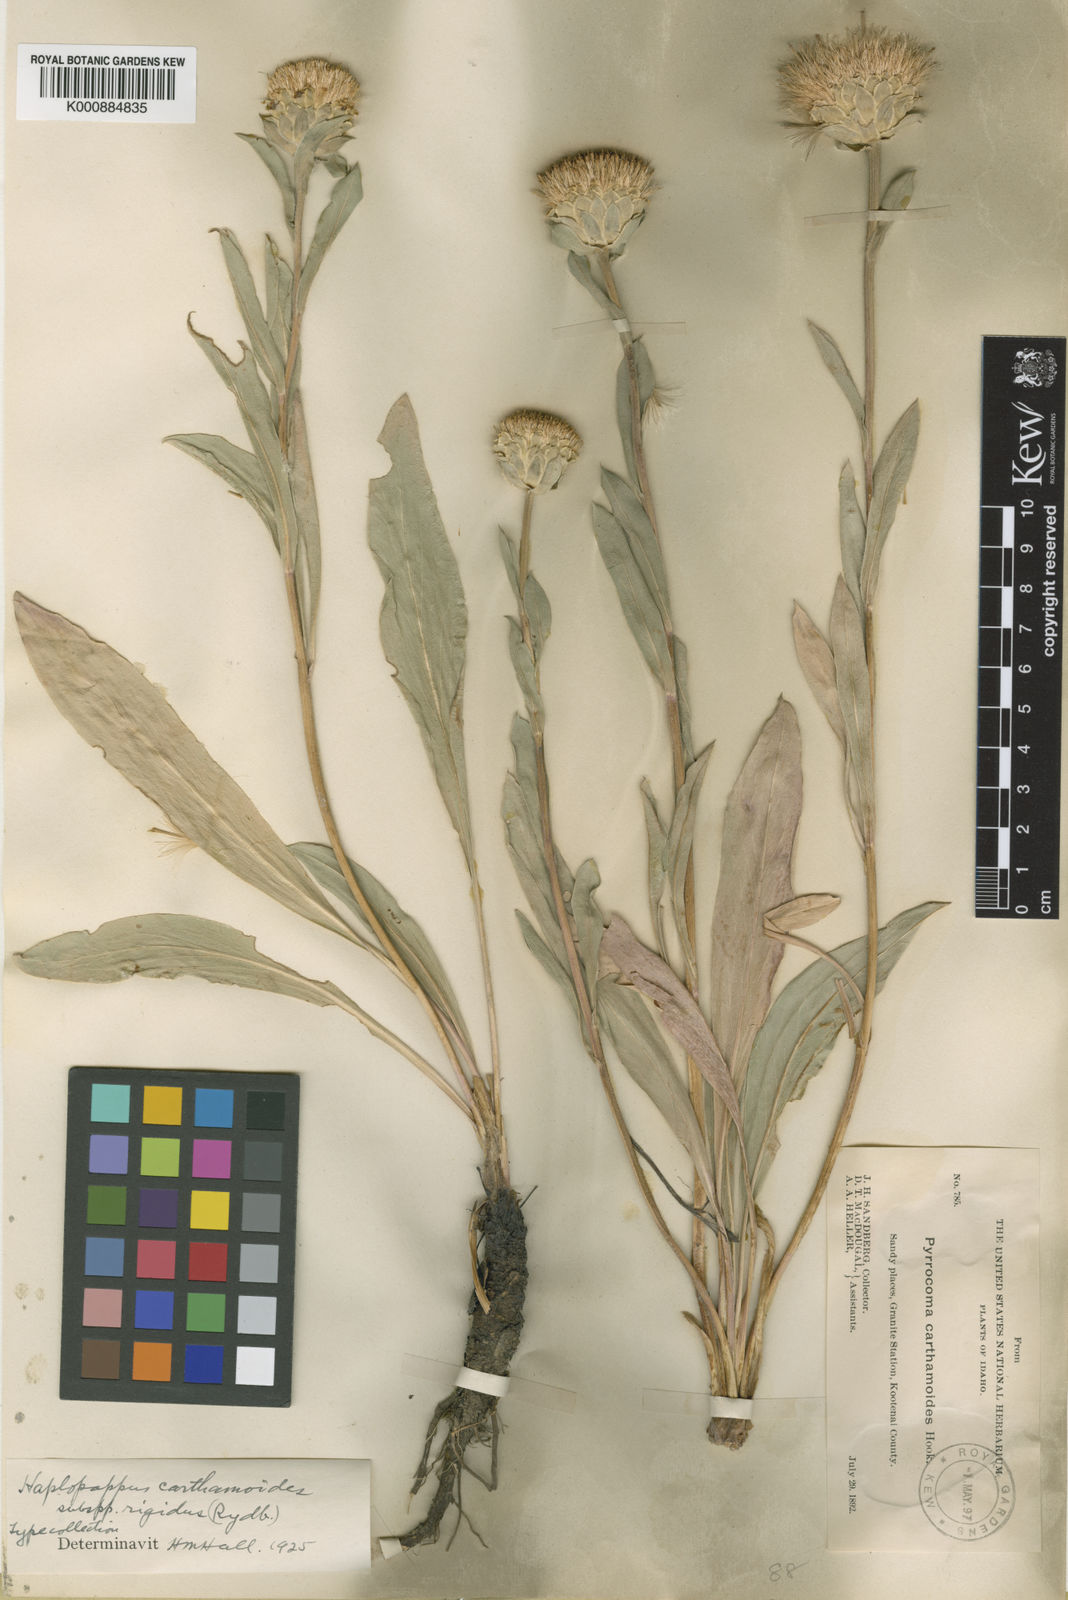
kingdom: Plantae
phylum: Tracheophyta
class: Magnoliopsida
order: Asterales
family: Asteraceae
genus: Pyrrocoma
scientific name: Pyrrocoma carthamoides
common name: Large-flower goldenweed
